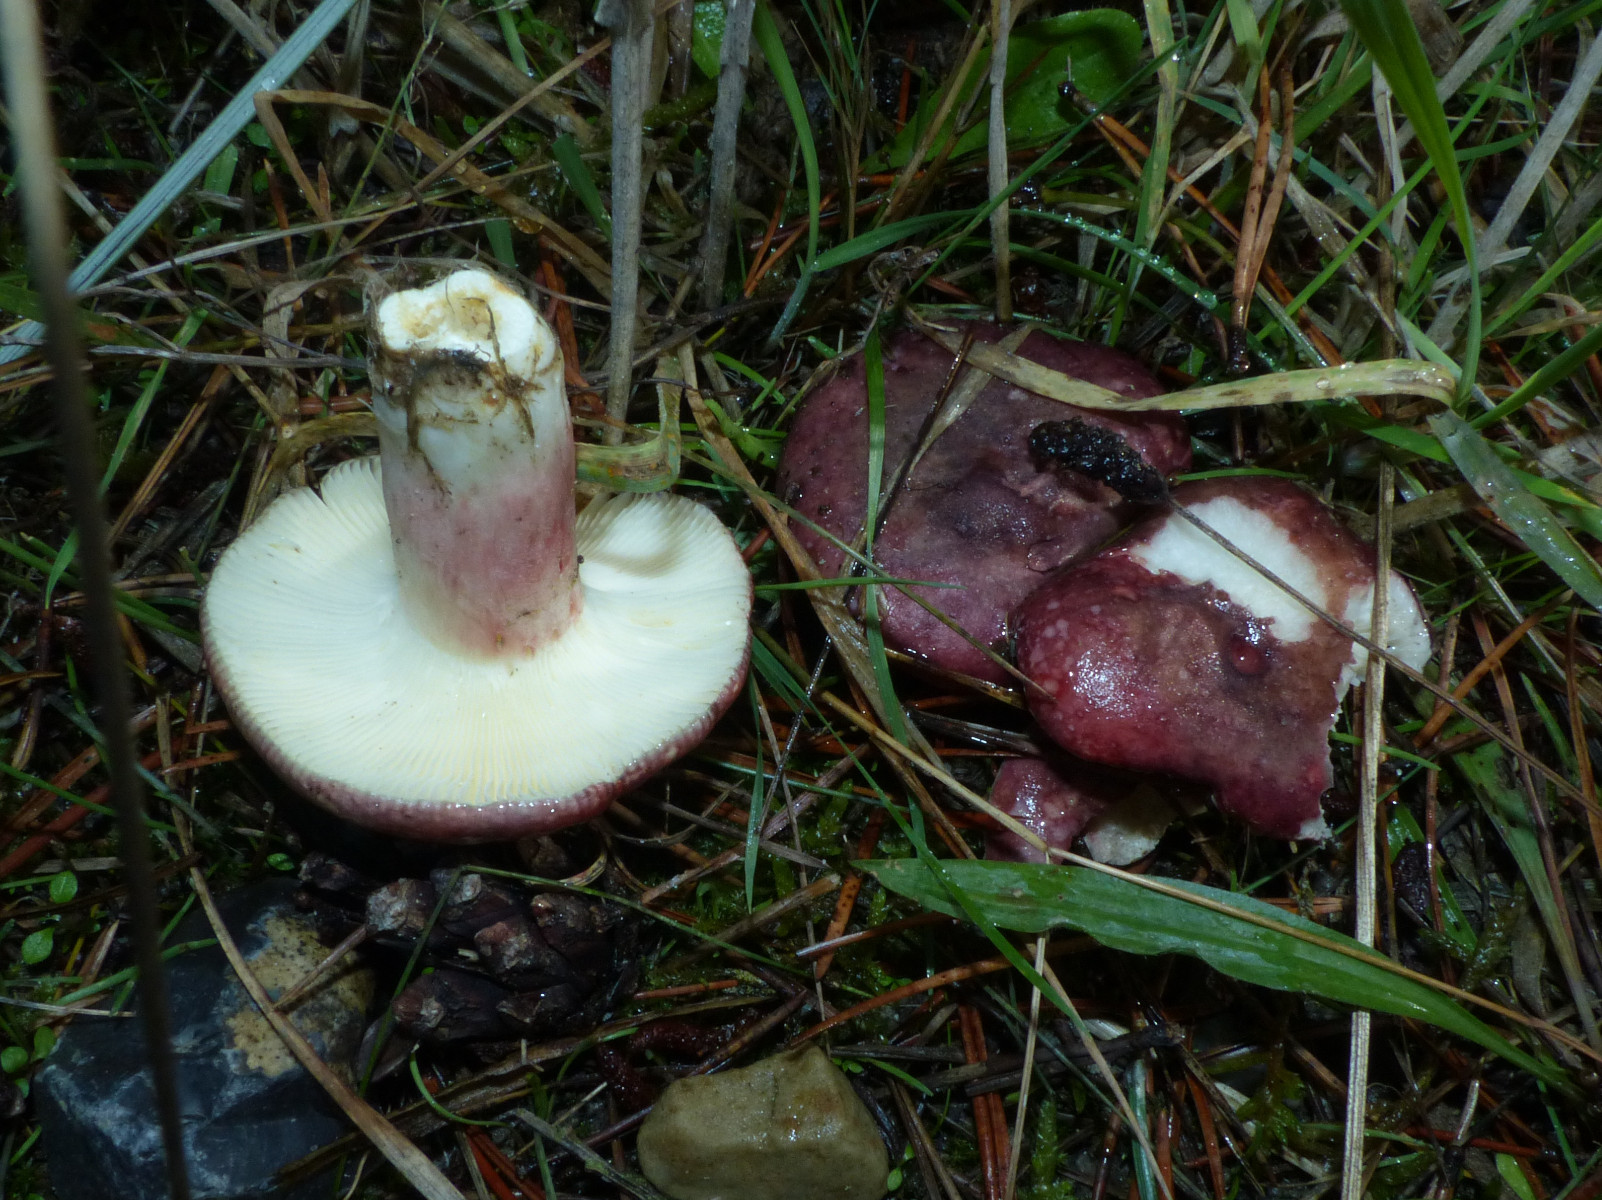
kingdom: Fungi
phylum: Basidiomycota
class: Agaricomycetes
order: Russulales
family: Russulaceae
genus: Russula
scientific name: Russula sardonia
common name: citronbladet skørhat
